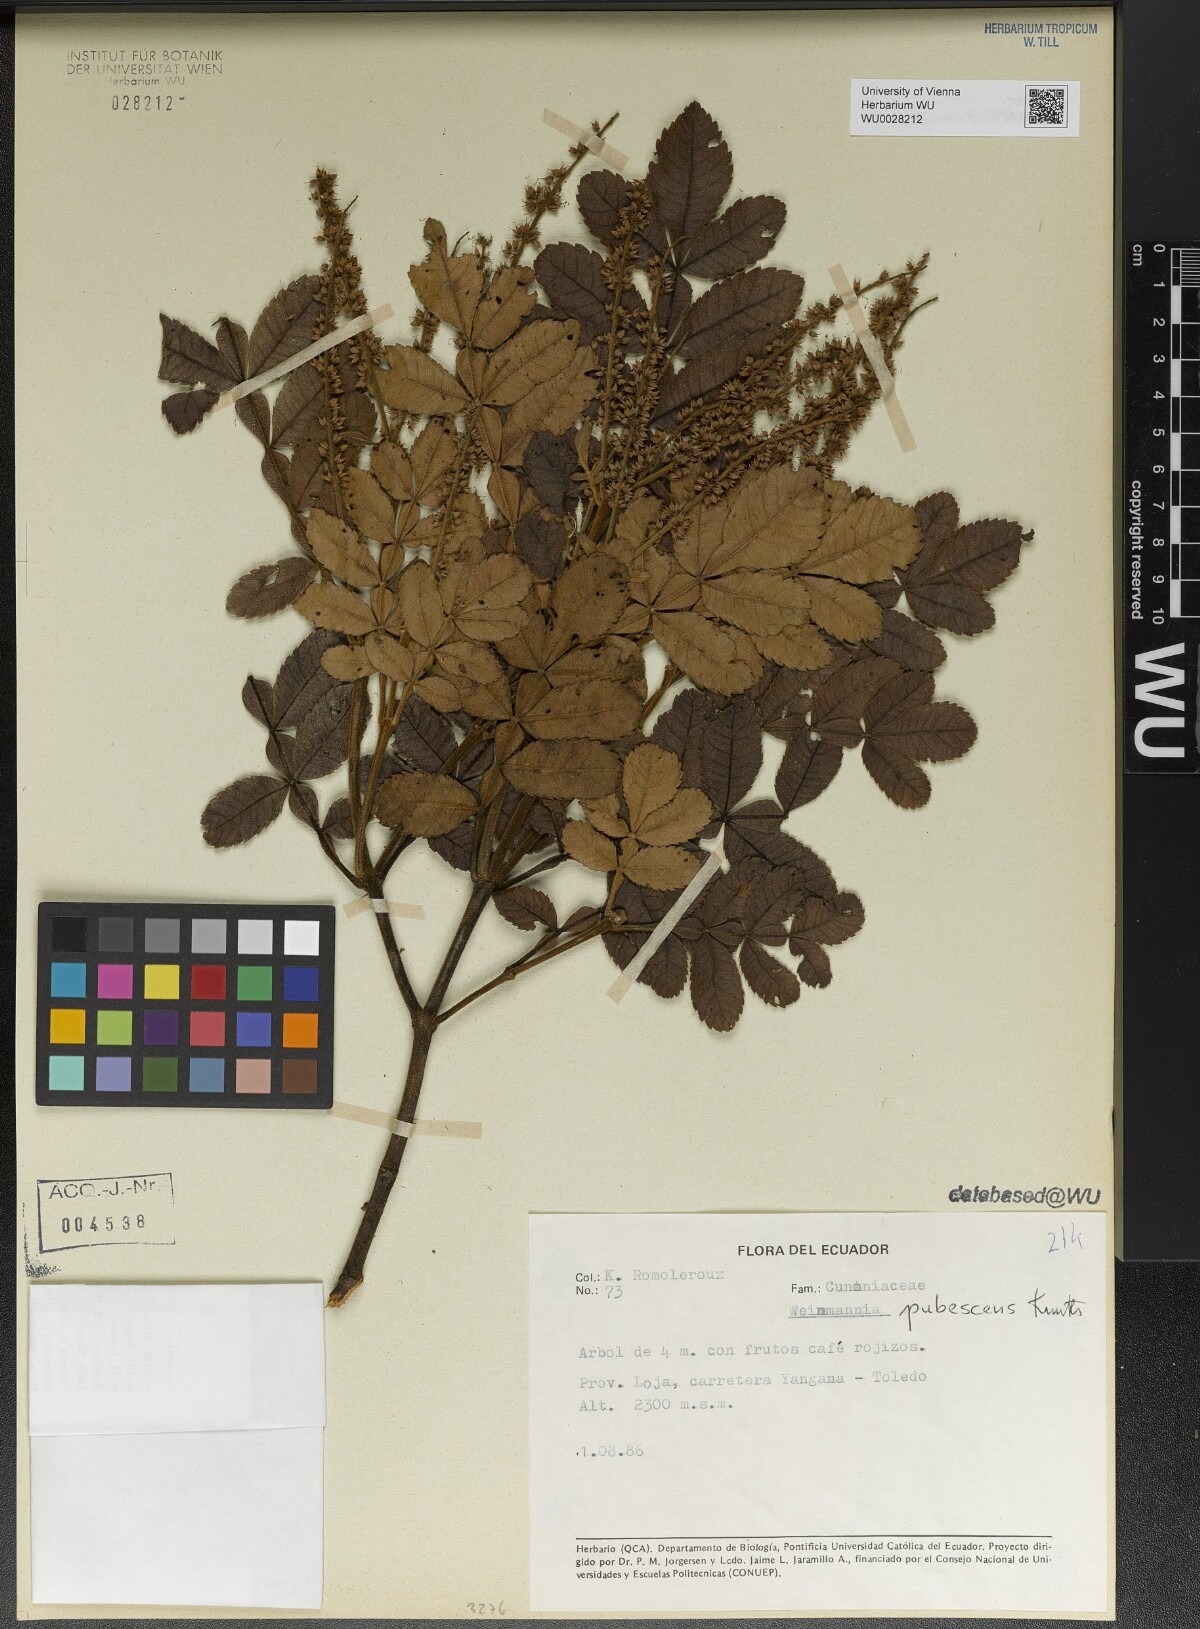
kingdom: Plantae
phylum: Tracheophyta
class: Magnoliopsida
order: Oxalidales
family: Cunoniaceae
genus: Weinmannia
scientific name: Weinmannia pubescens
